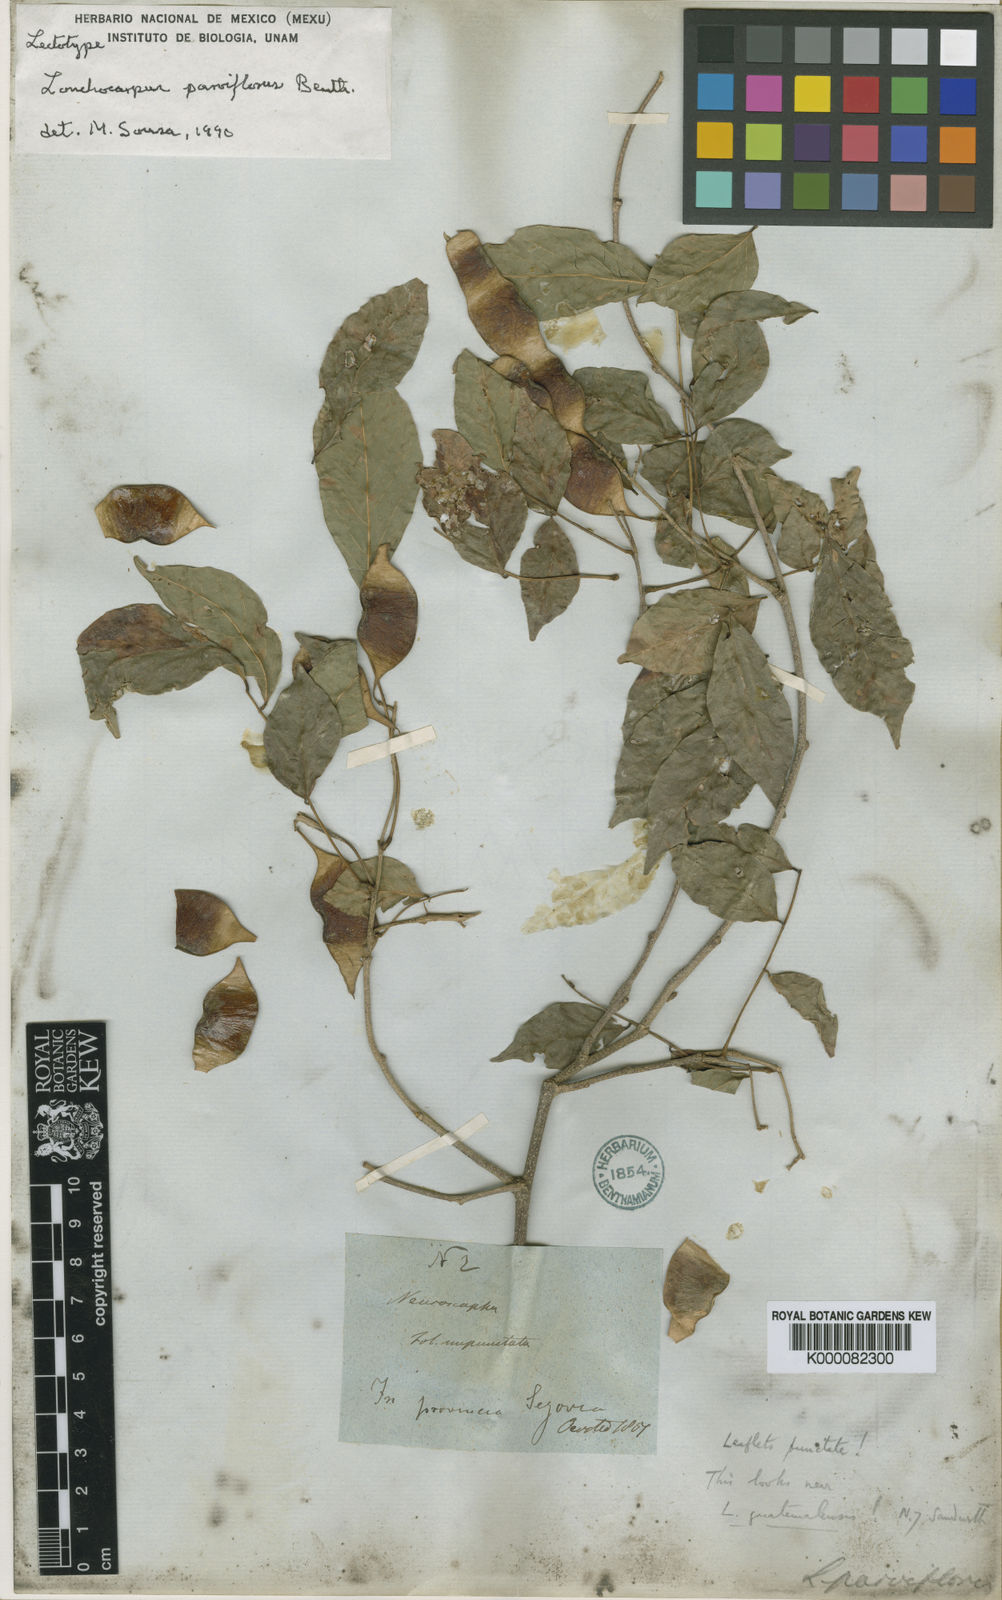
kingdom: Plantae
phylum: Tracheophyta
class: Magnoliopsida
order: Fabales
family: Fabaceae
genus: Lonchocarpus
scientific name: Lonchocarpus parviflorus
